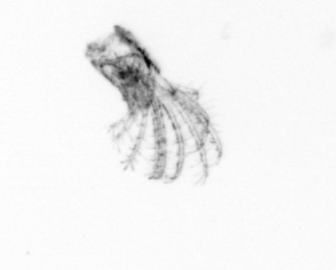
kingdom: Animalia
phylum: Arthropoda
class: Maxillopoda
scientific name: Maxillopoda
